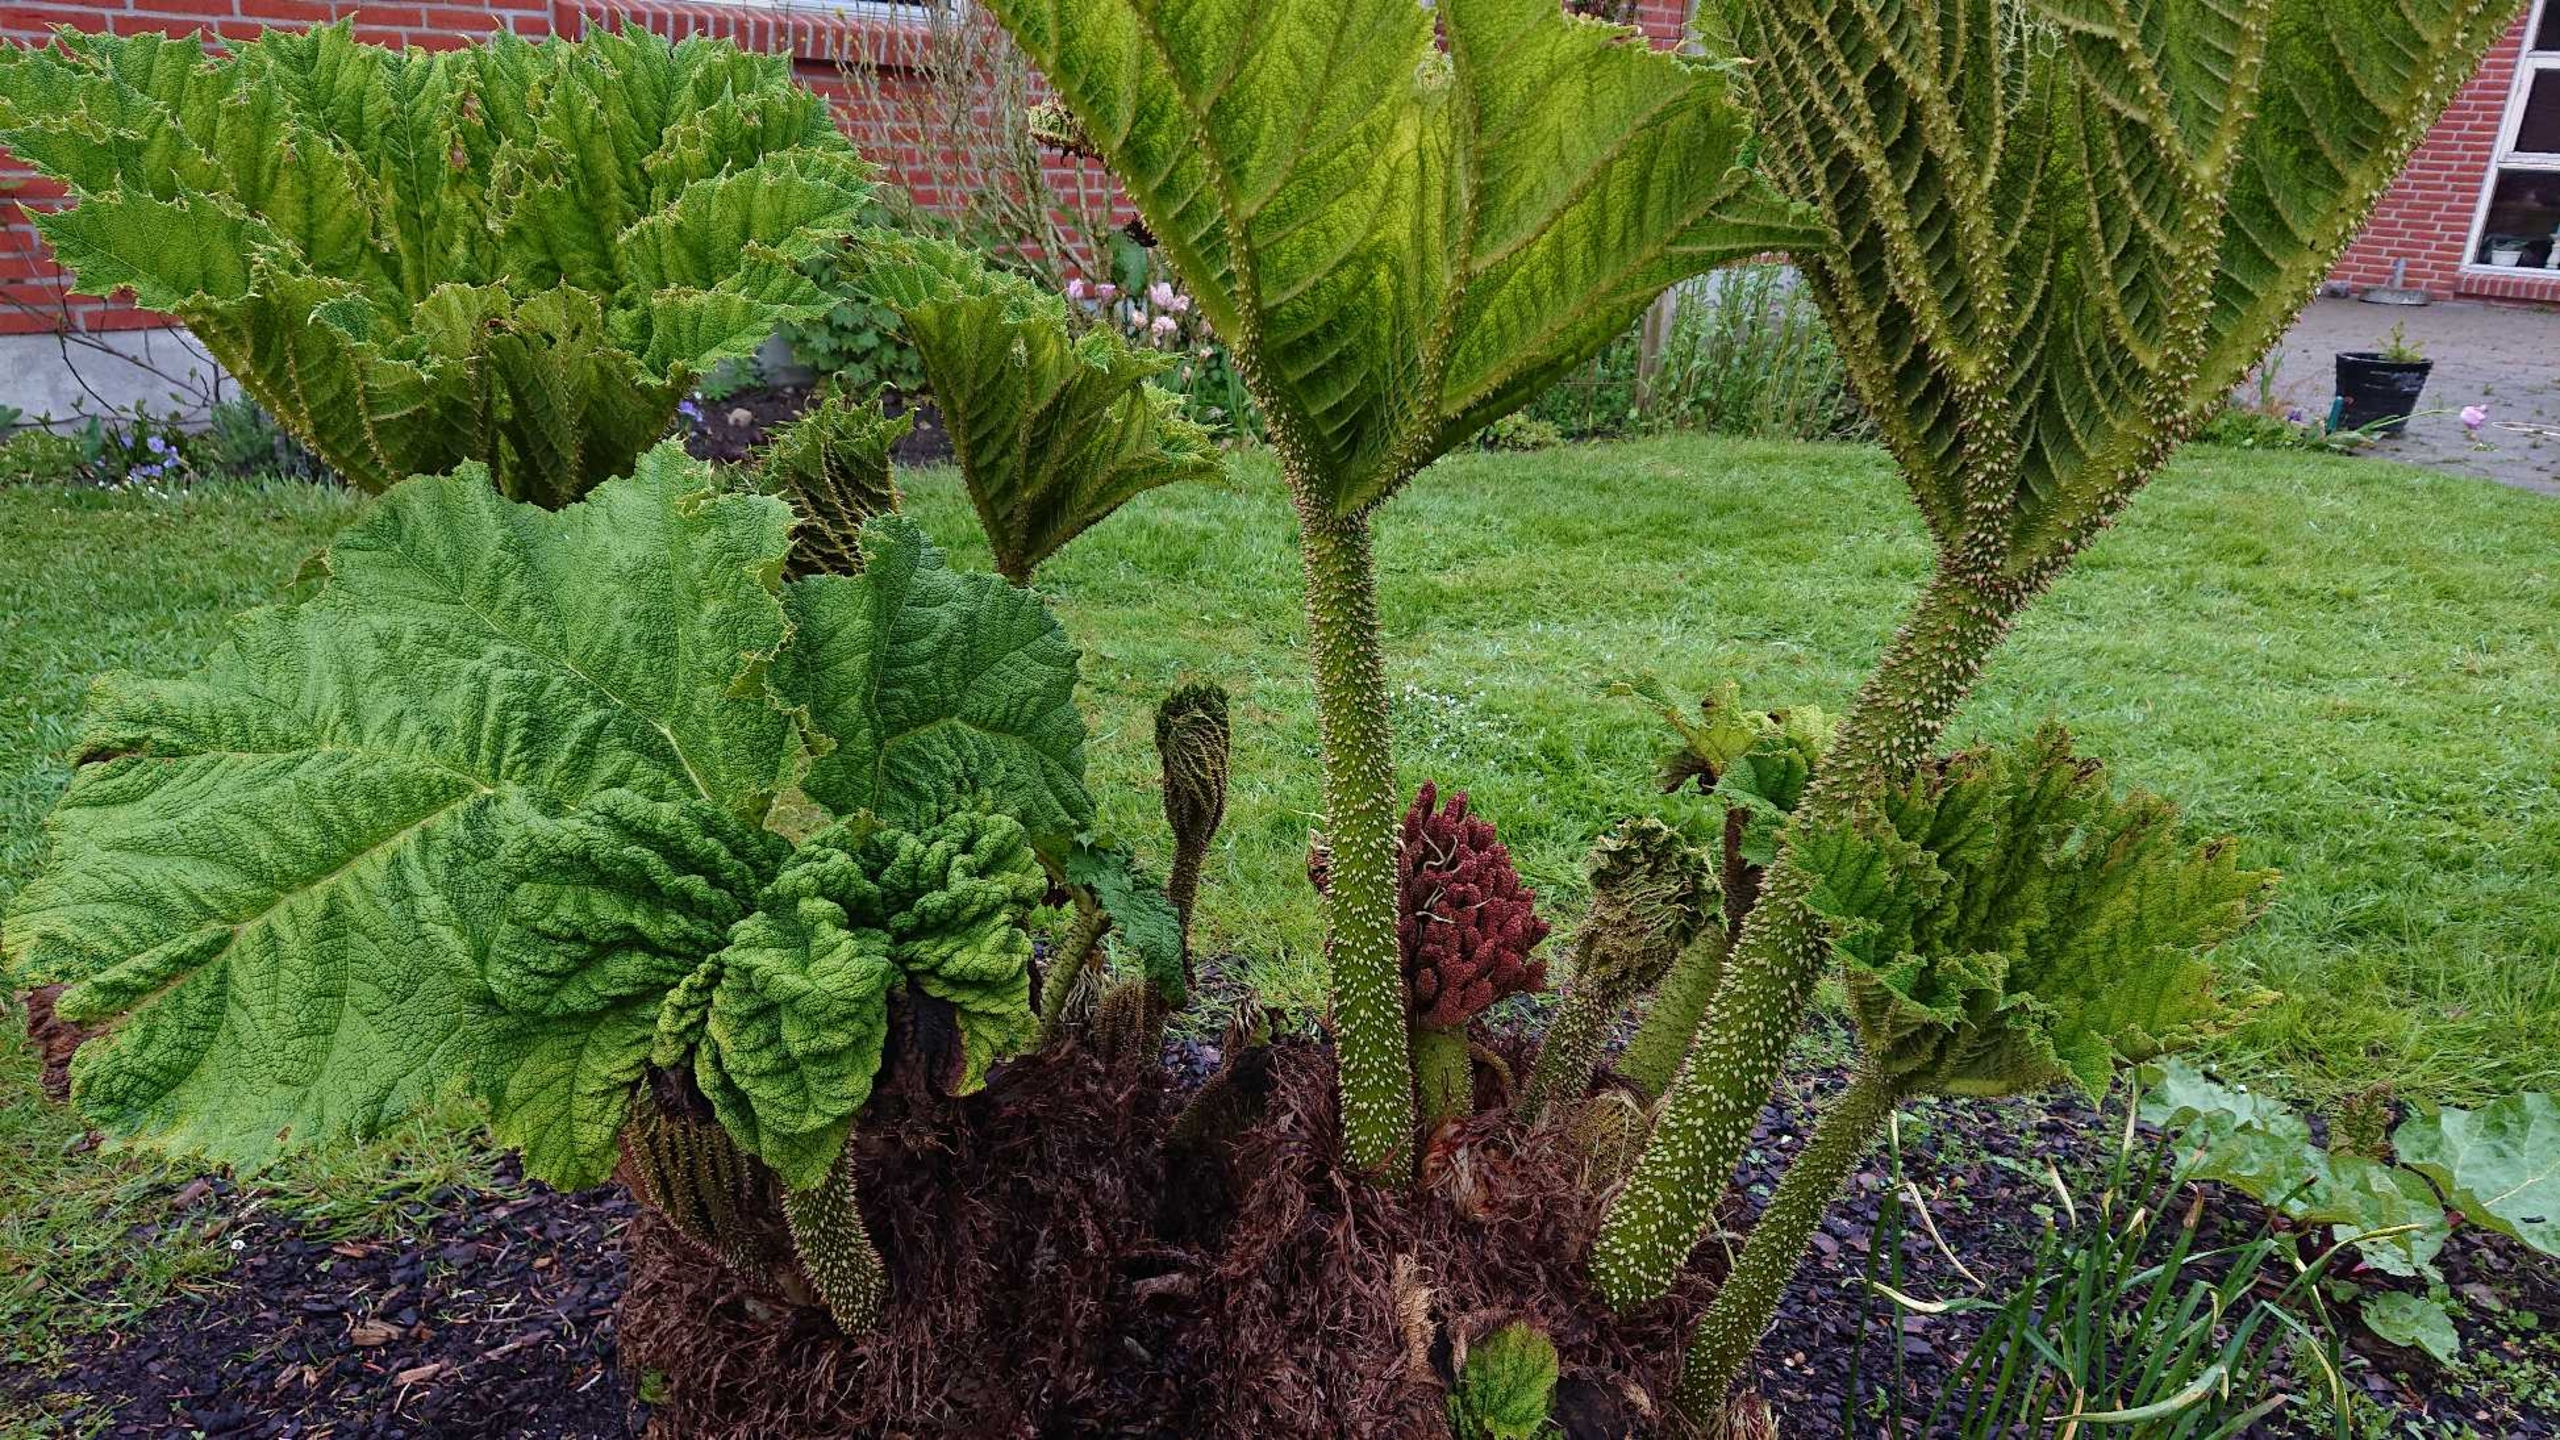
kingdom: Plantae
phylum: Tracheophyta
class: Magnoliopsida
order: Gunnerales
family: Gunneraceae
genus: Gunnera
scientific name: Gunnera tinctoria
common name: Farvegunnera
